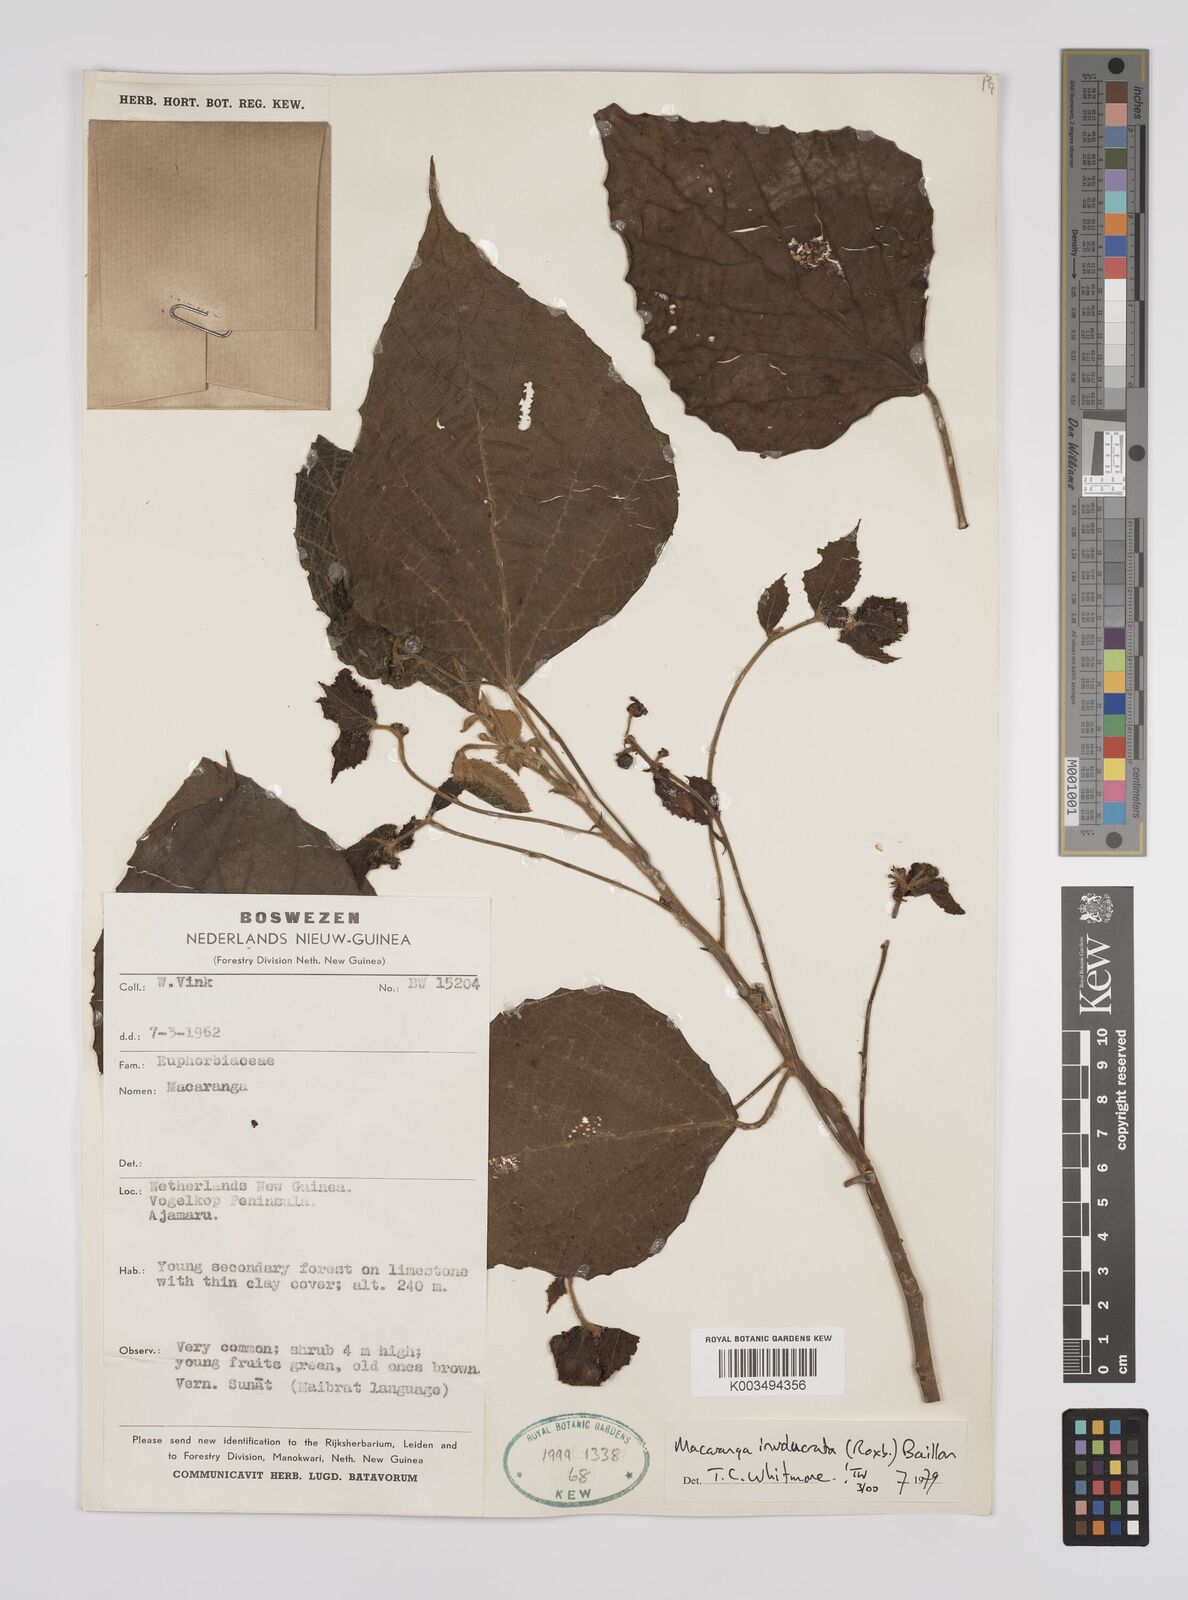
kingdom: Plantae
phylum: Tracheophyta
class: Magnoliopsida
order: Malpighiales
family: Euphorbiaceae
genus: Macaranga
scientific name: Macaranga involucrata
